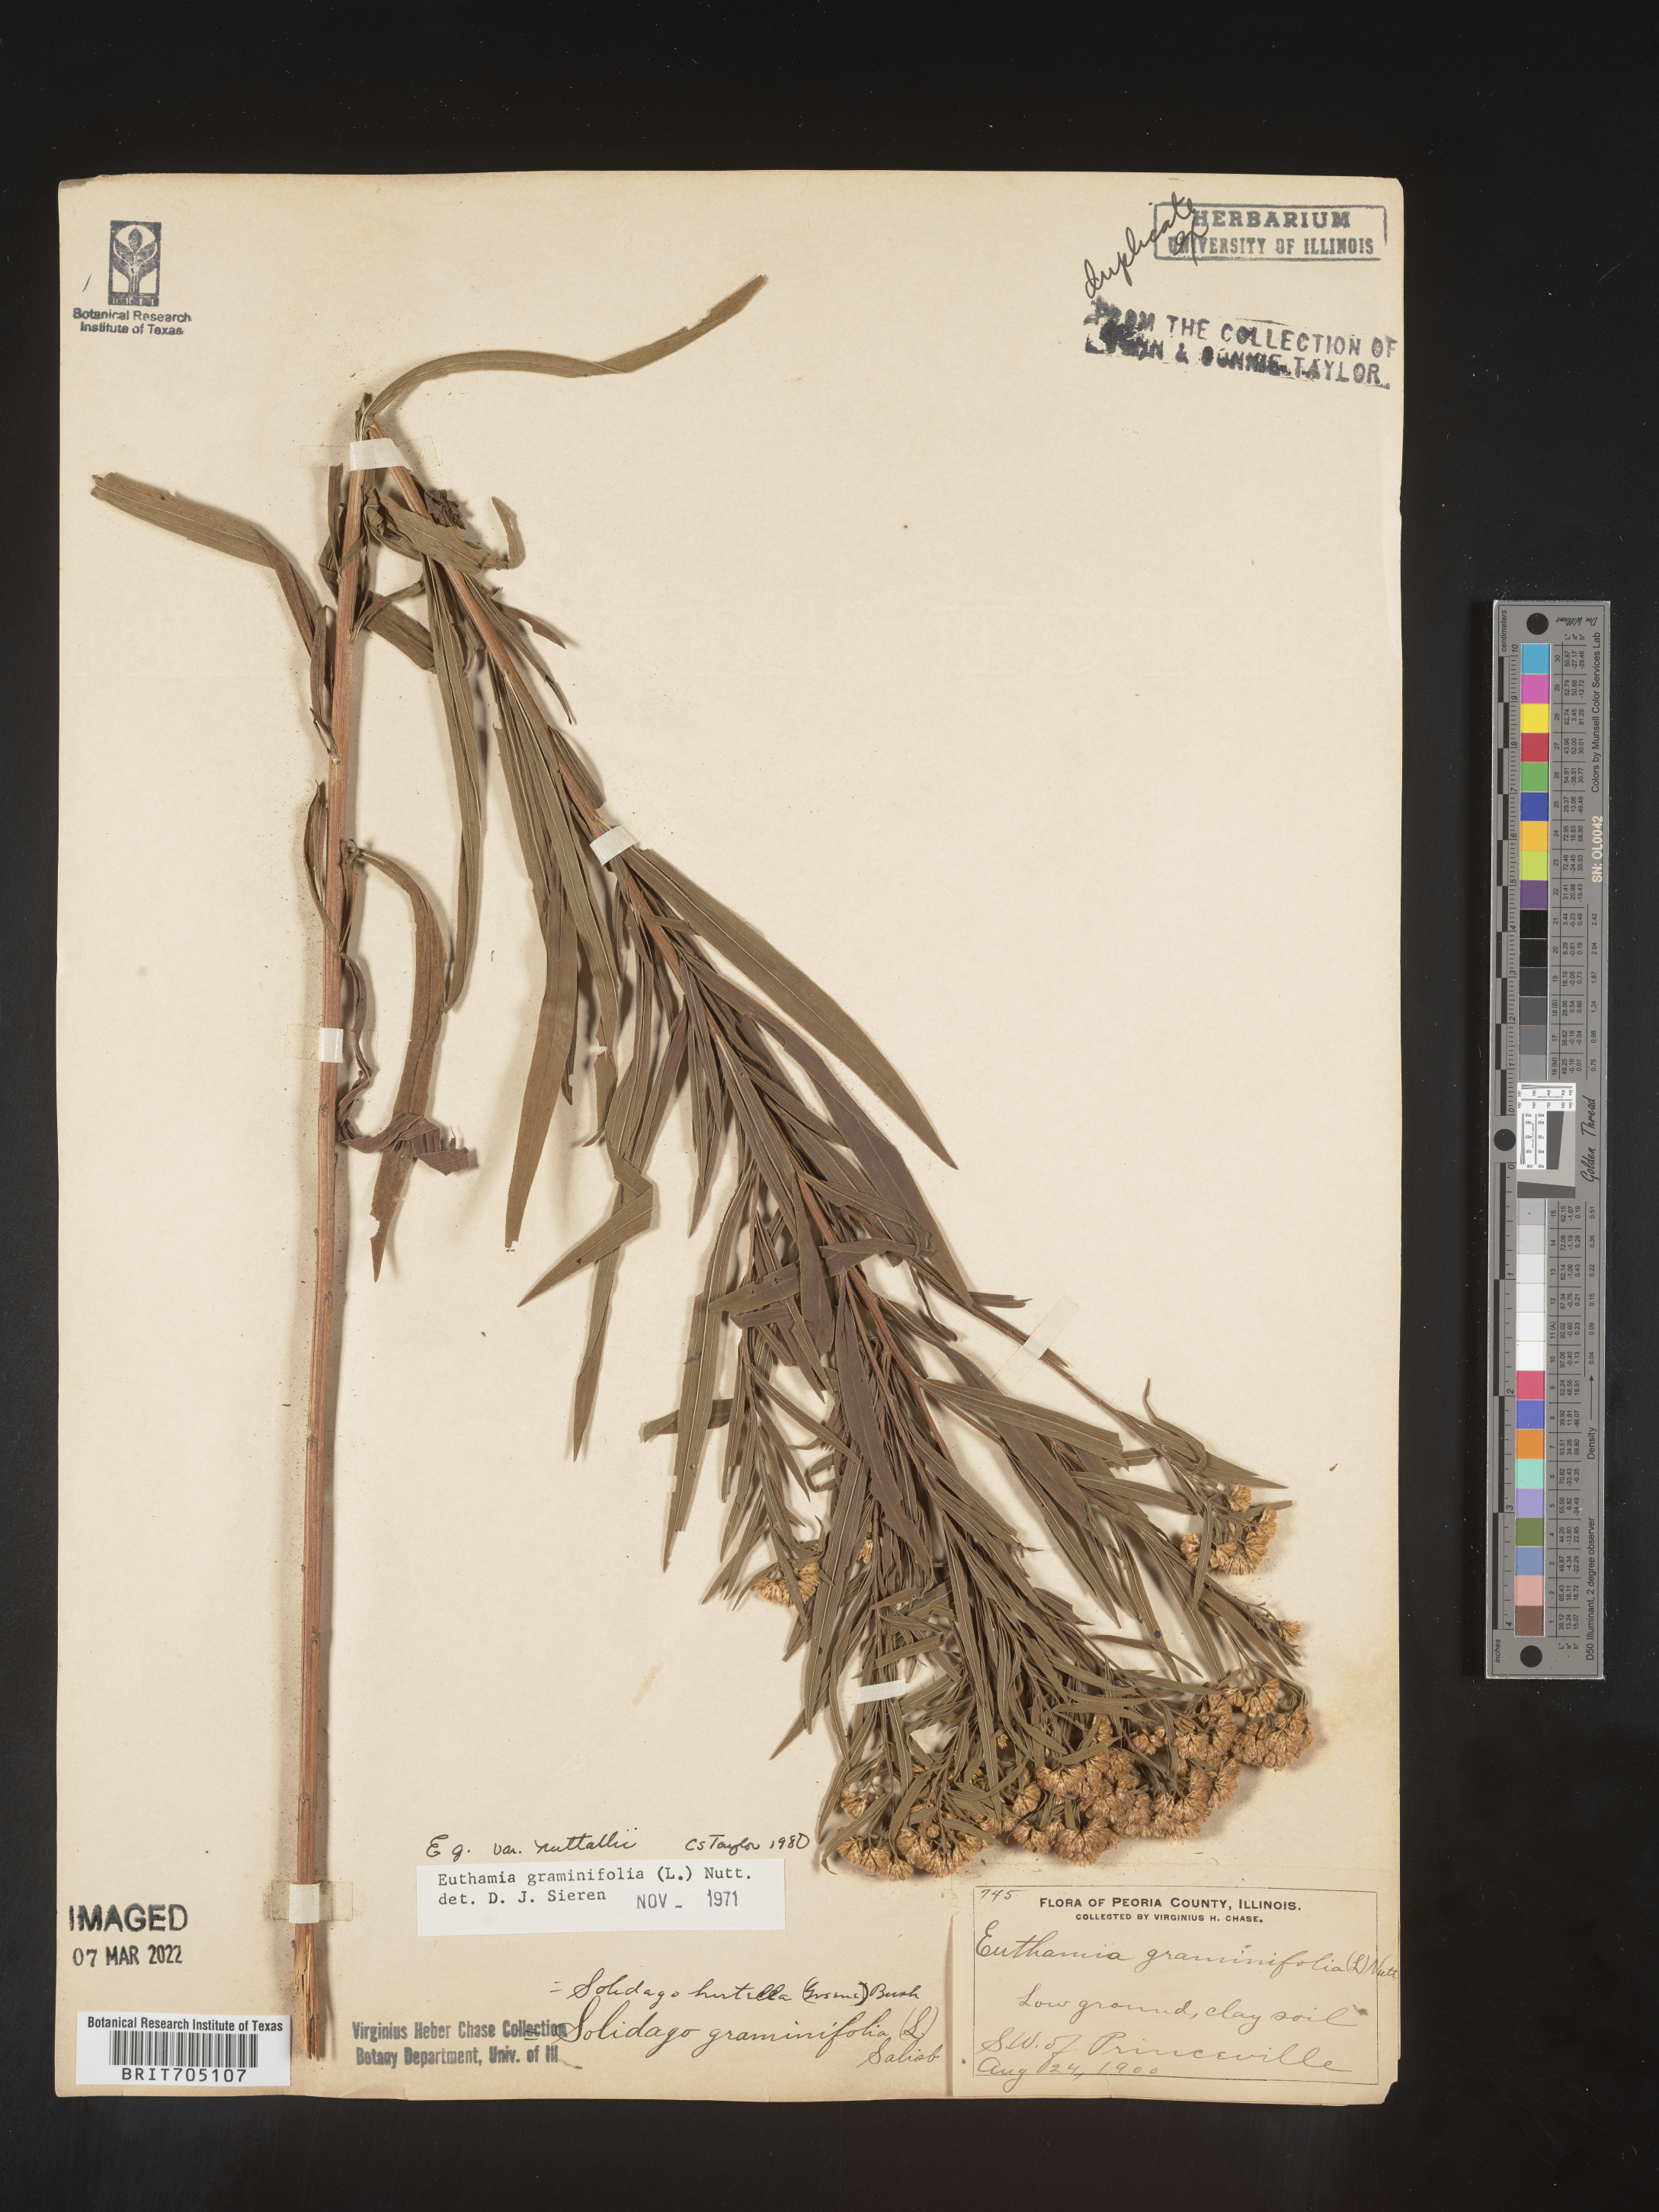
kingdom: Plantae
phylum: Tracheophyta
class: Magnoliopsida
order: Asterales
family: Asteraceae
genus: Euthamia
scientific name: Euthamia graminifolia
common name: Common goldentop
